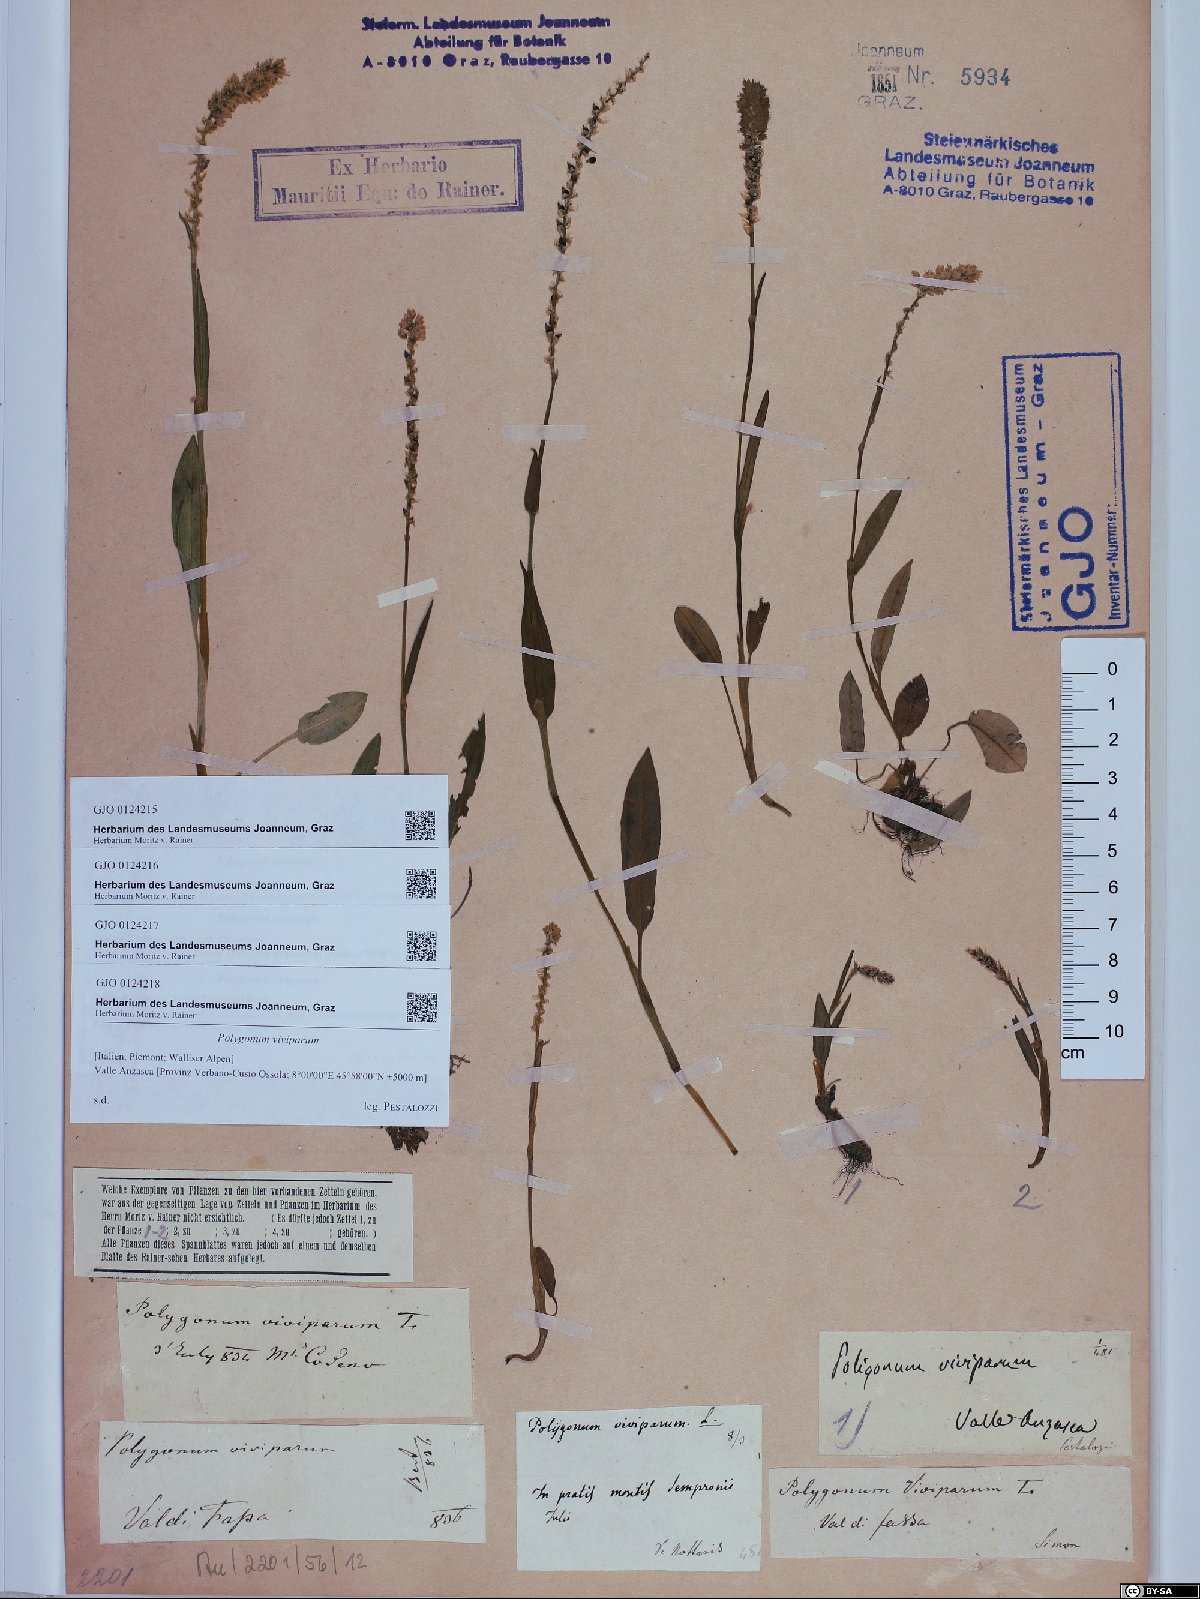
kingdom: Plantae
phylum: Tracheophyta
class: Magnoliopsida
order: Caryophyllales
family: Polygonaceae
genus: Bistorta
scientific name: Bistorta vivipara
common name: Alpine bistort
